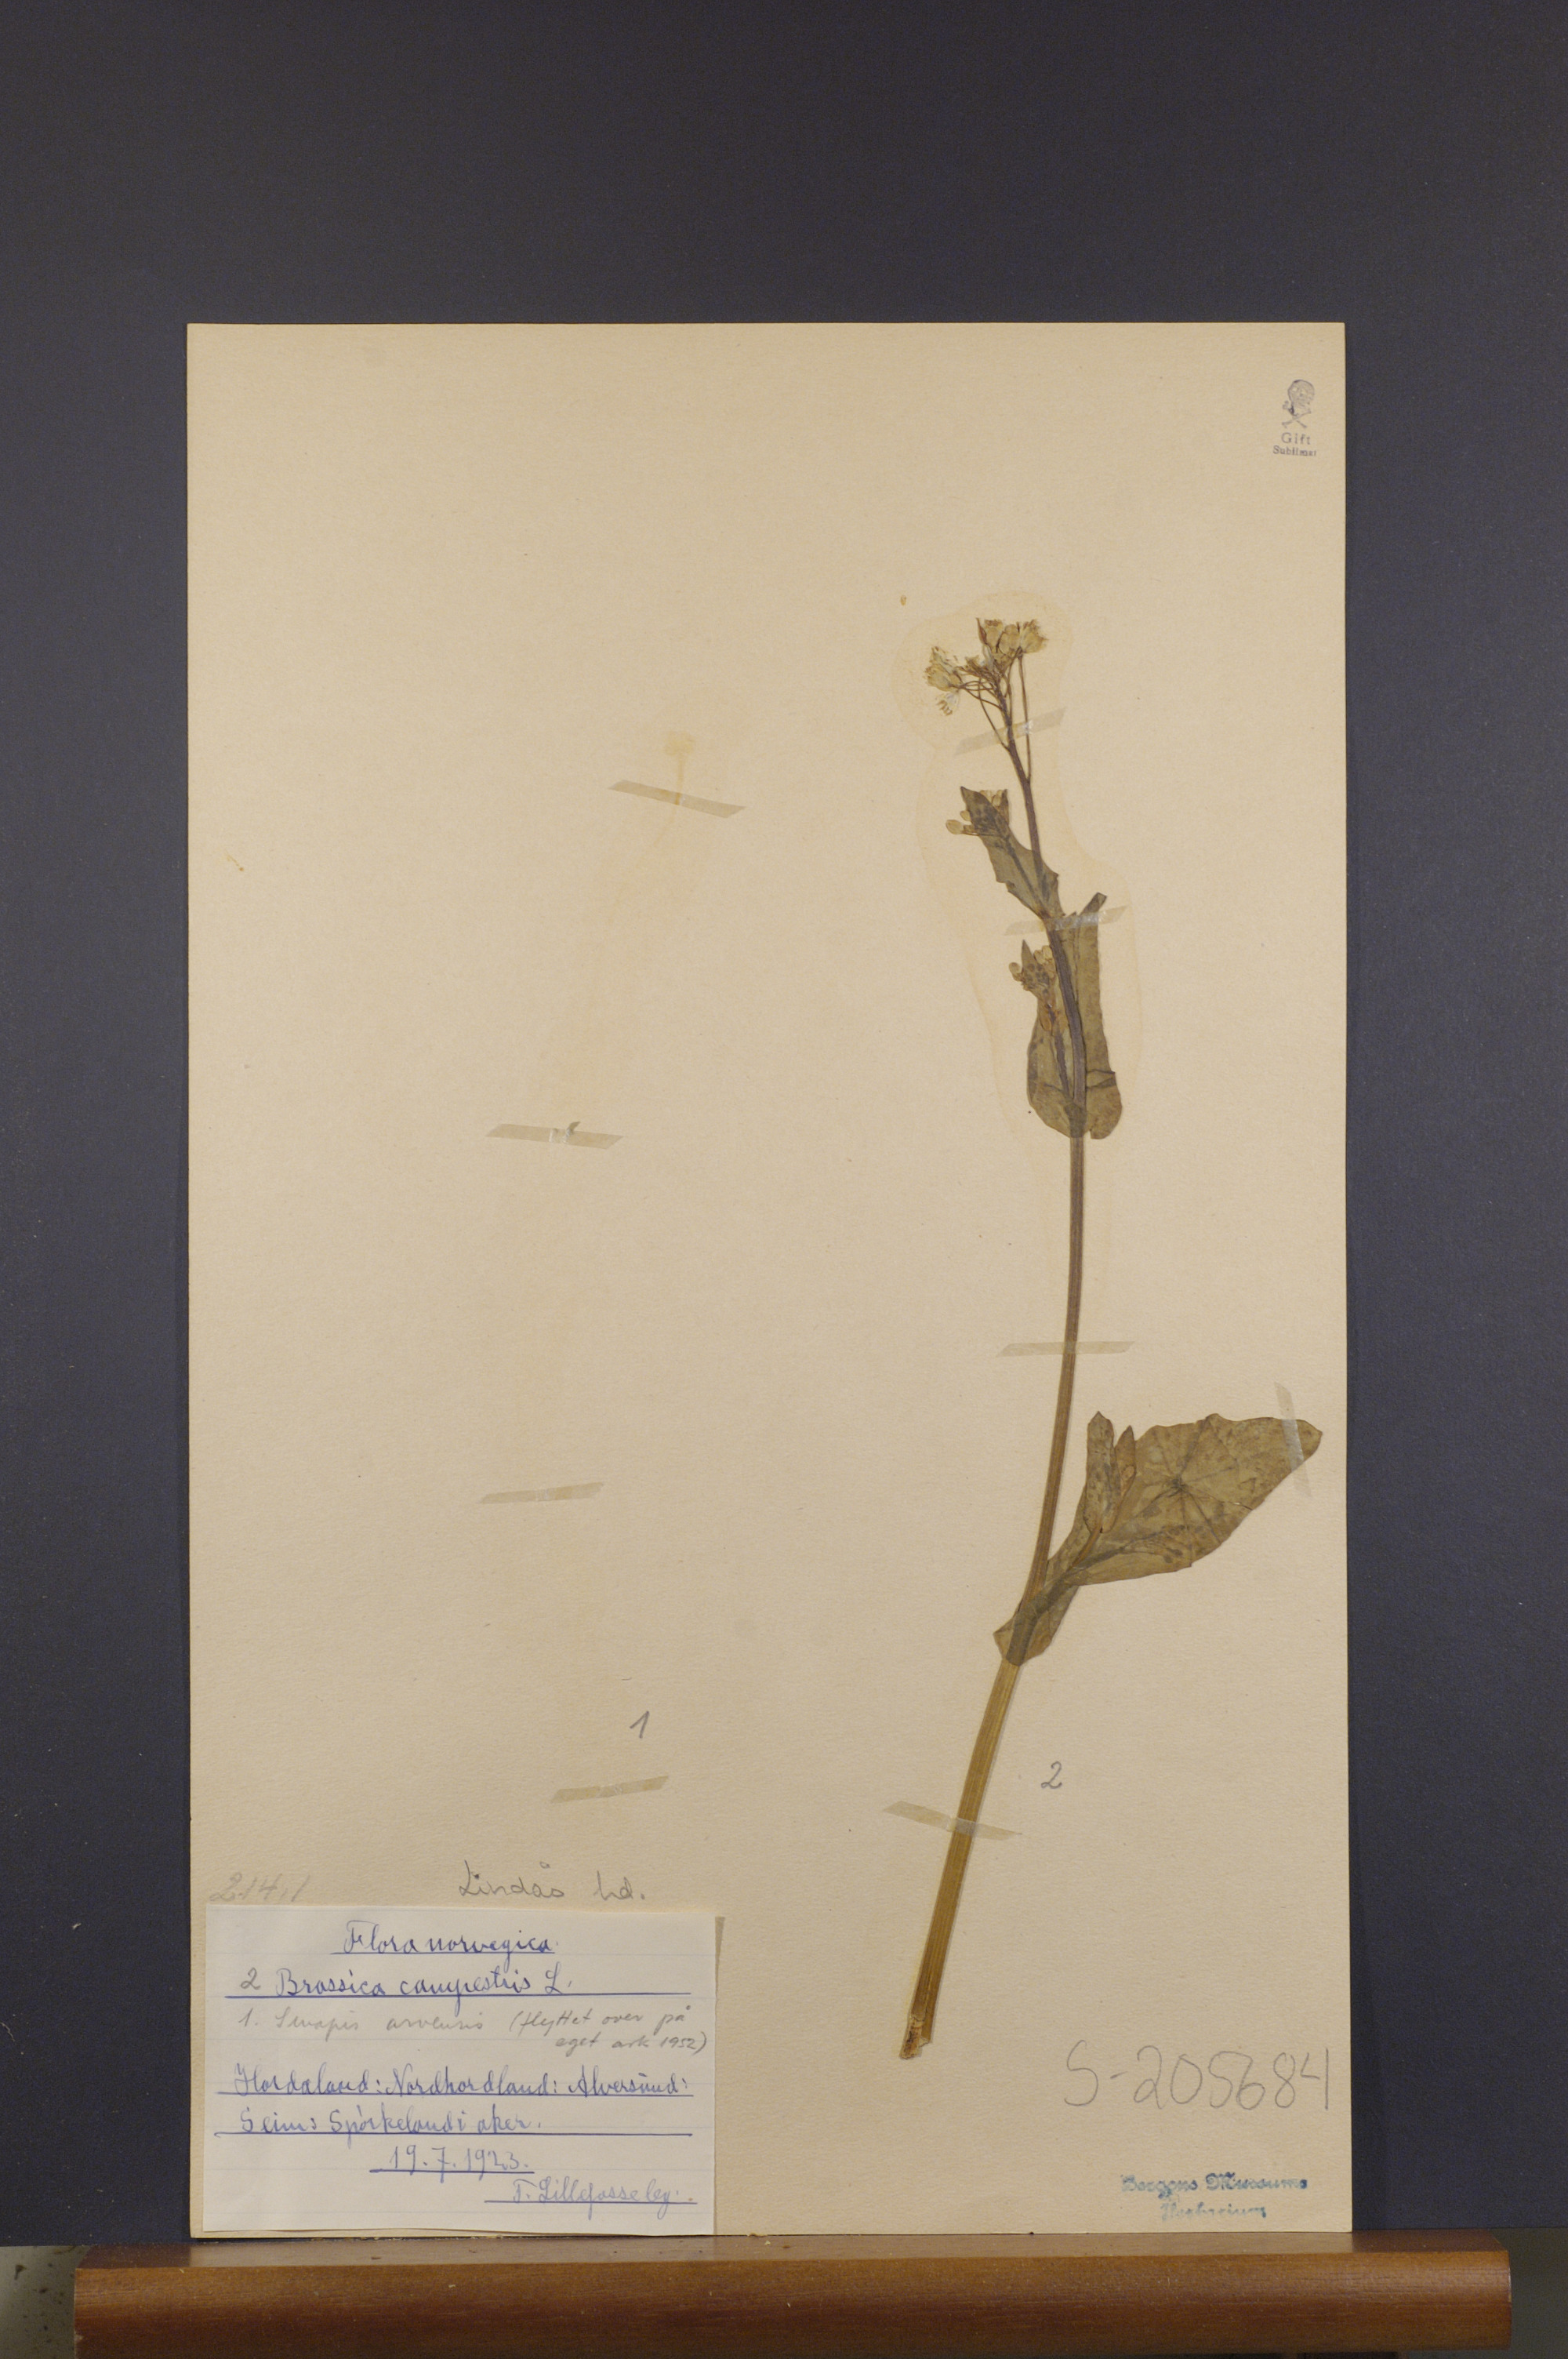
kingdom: Plantae
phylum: Tracheophyta
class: Magnoliopsida
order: Brassicales
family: Brassicaceae
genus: Brassica
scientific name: Brassica rapa
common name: Field mustard
